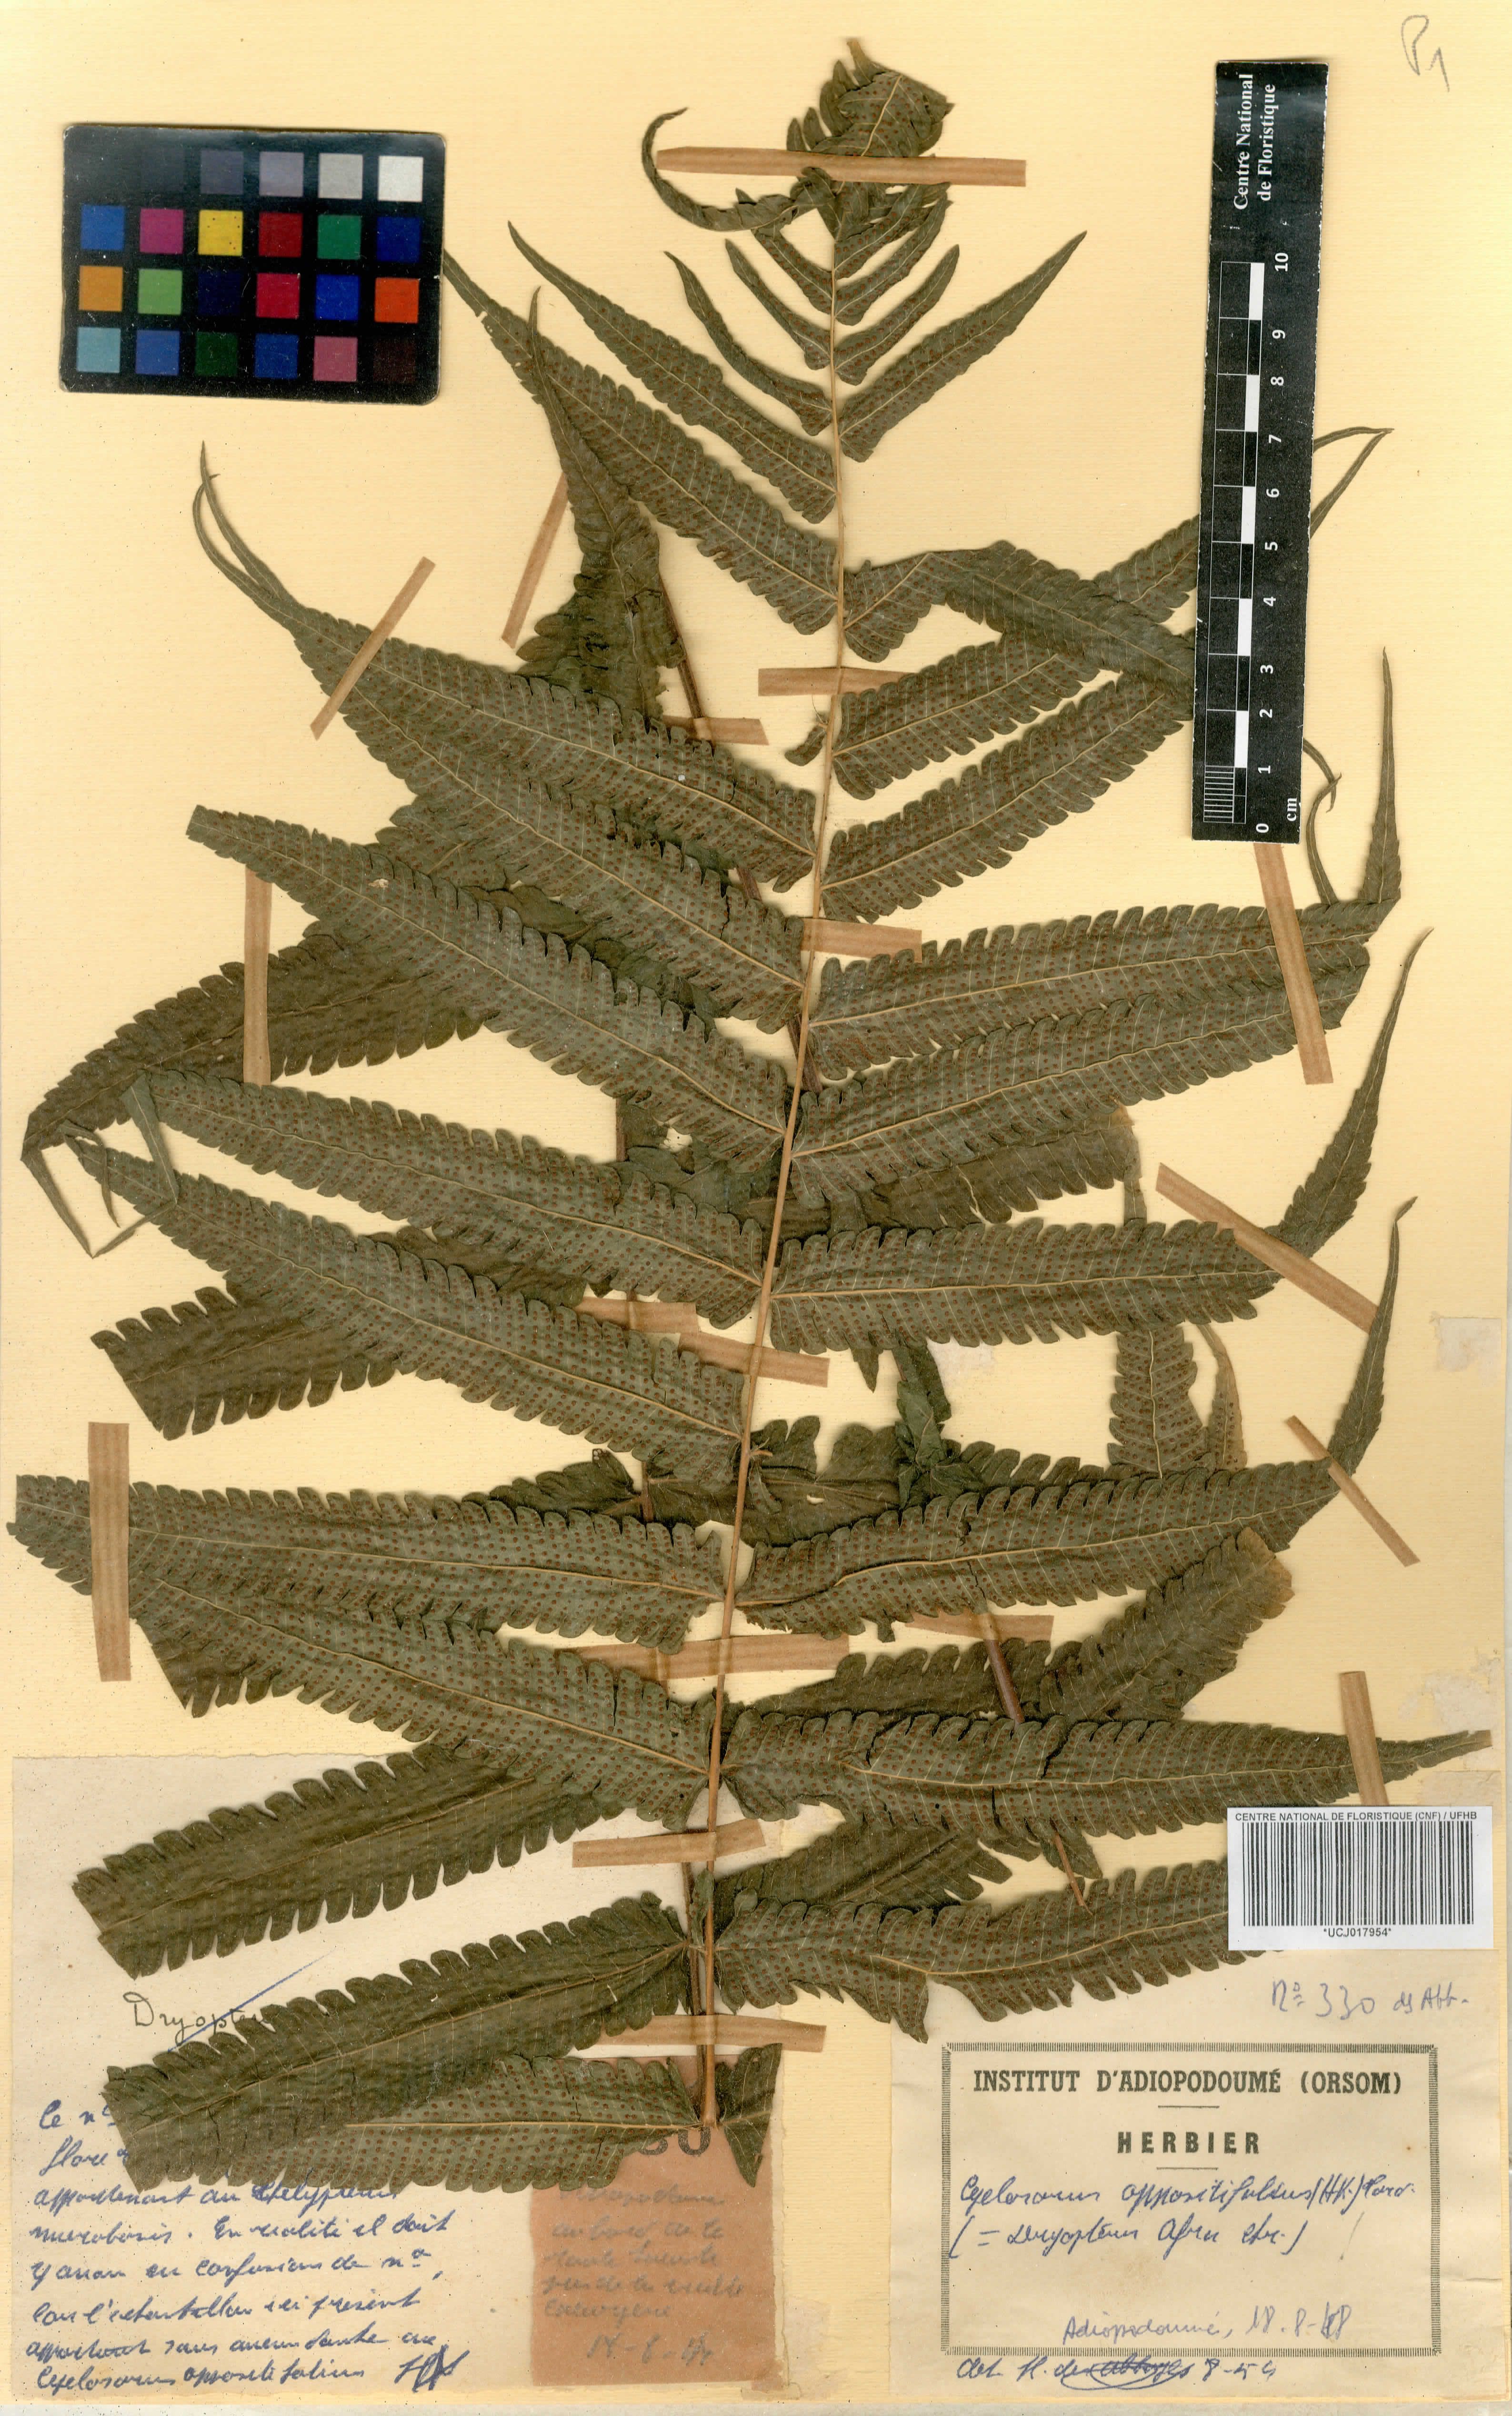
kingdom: Plantae
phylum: Tracheophyta
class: Polypodiopsida
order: Polypodiales
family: Thelypteridaceae
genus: Menisorus
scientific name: Menisorus oppositifolius
